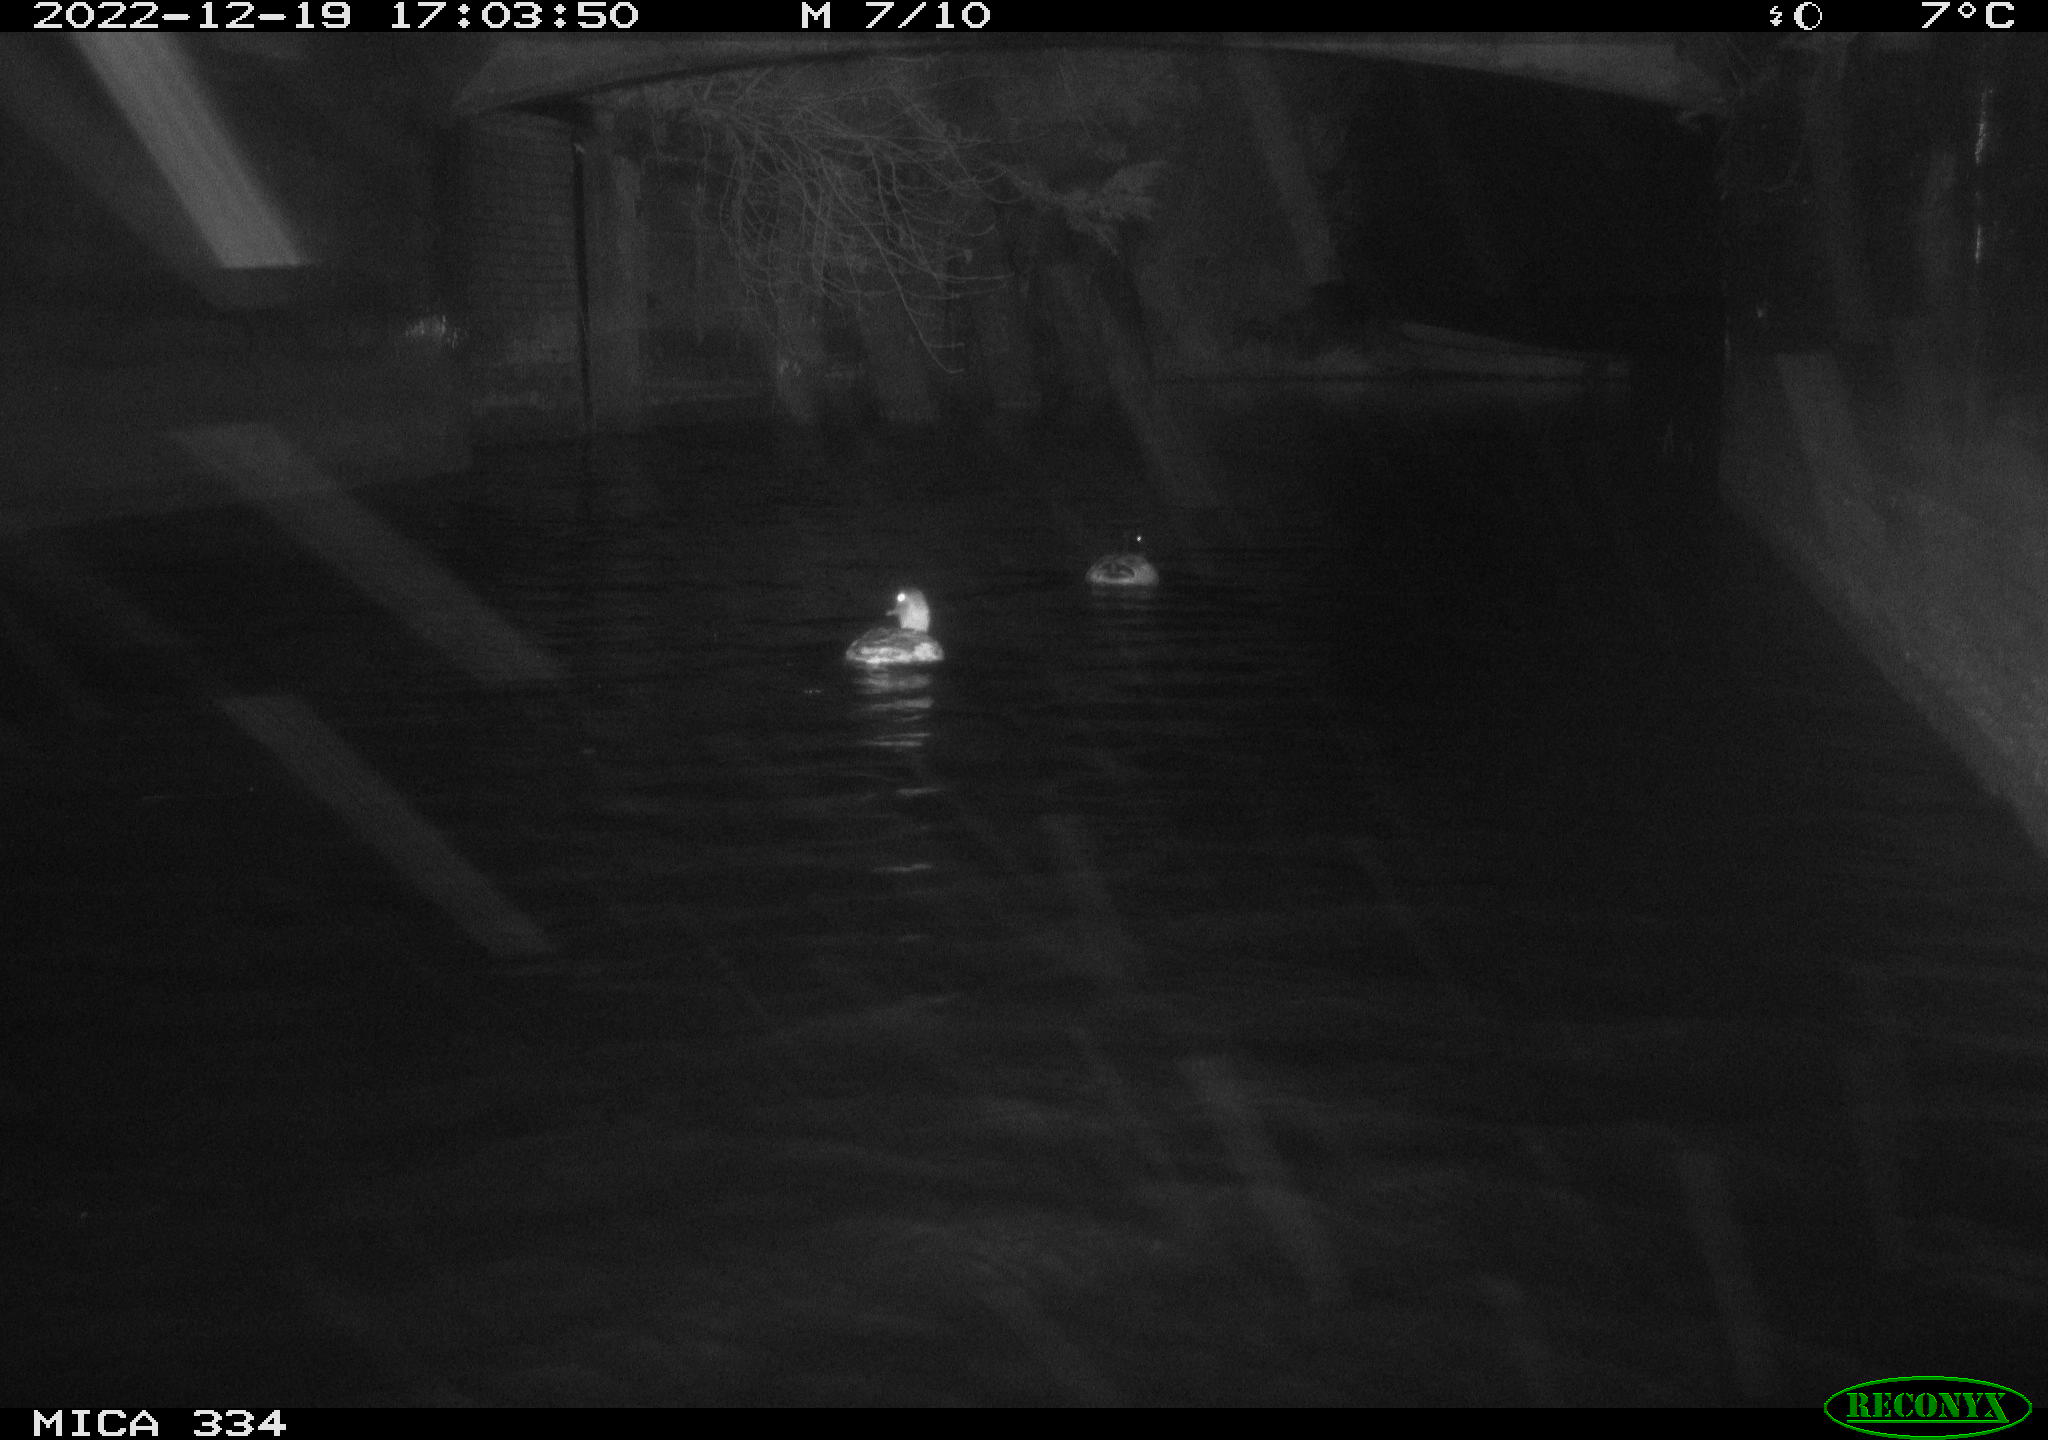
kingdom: Animalia
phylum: Chordata
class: Aves
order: Anseriformes
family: Anatidae
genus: Anas
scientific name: Anas
